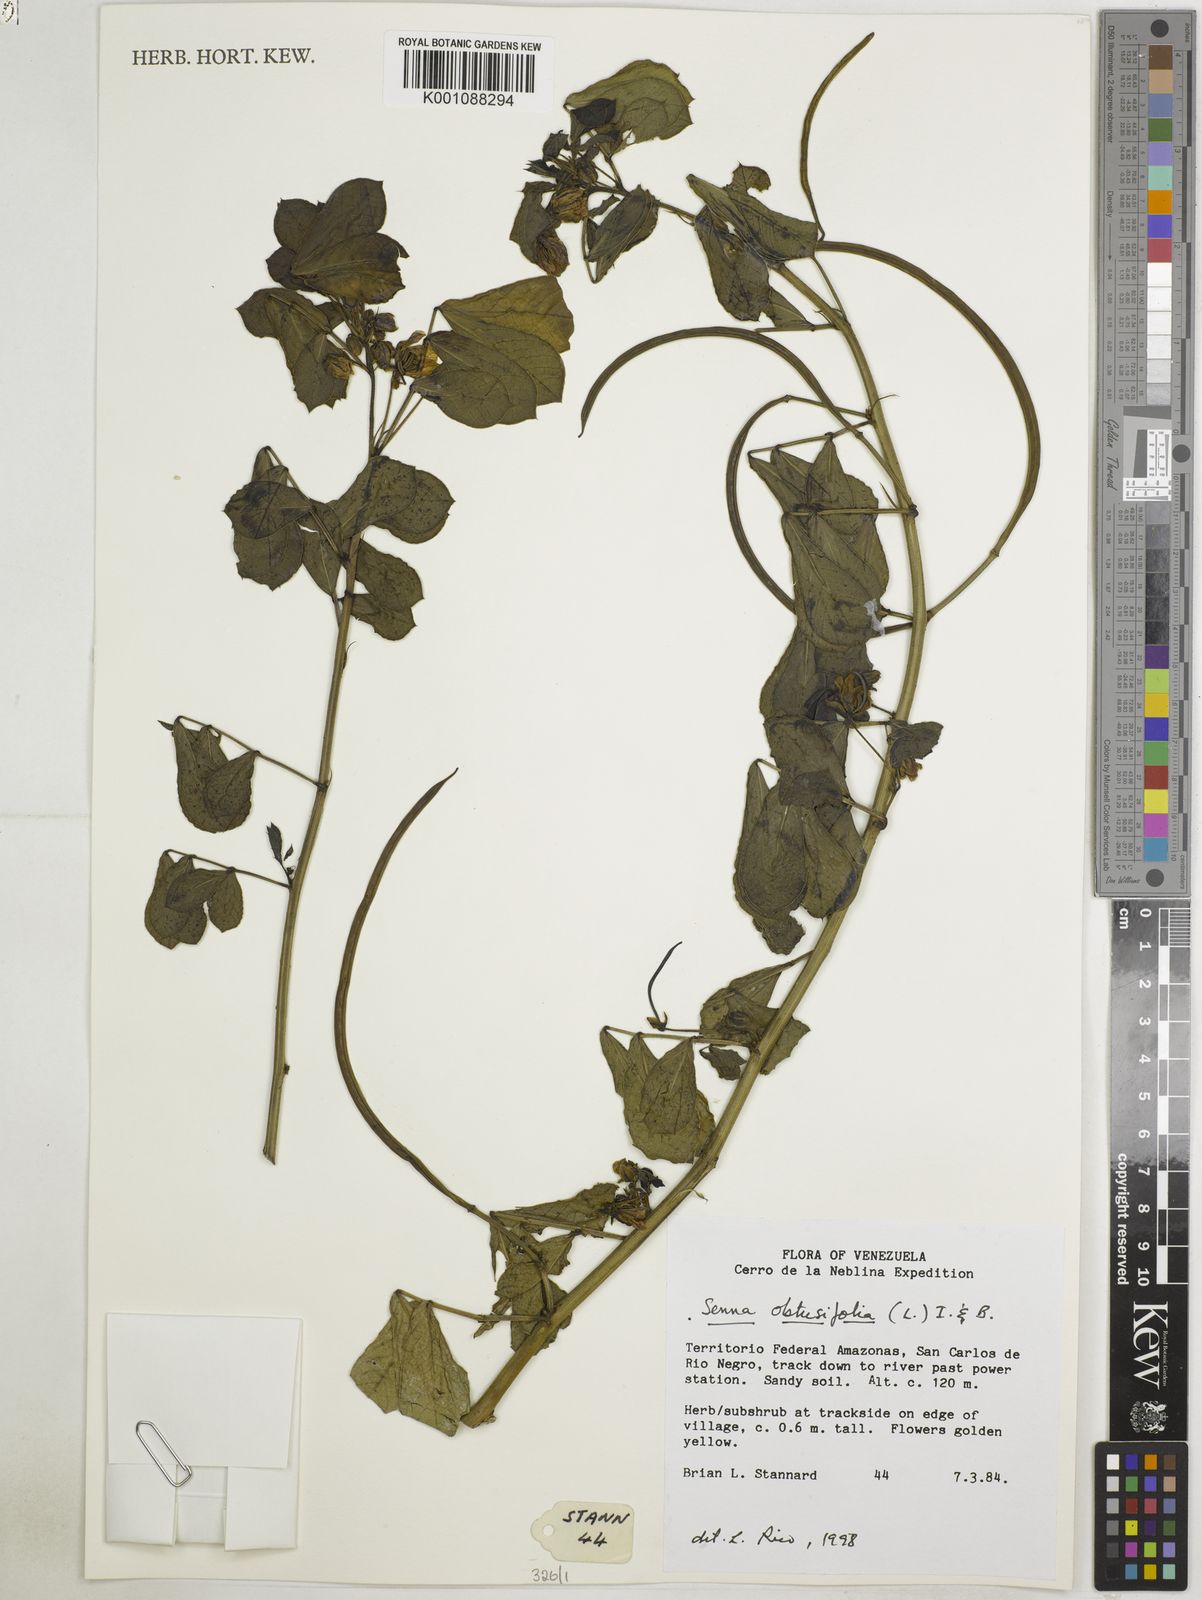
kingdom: Plantae
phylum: Tracheophyta
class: Magnoliopsida
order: Fabales
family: Fabaceae
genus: Senna
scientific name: Senna obtusifolia
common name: Java-bean
